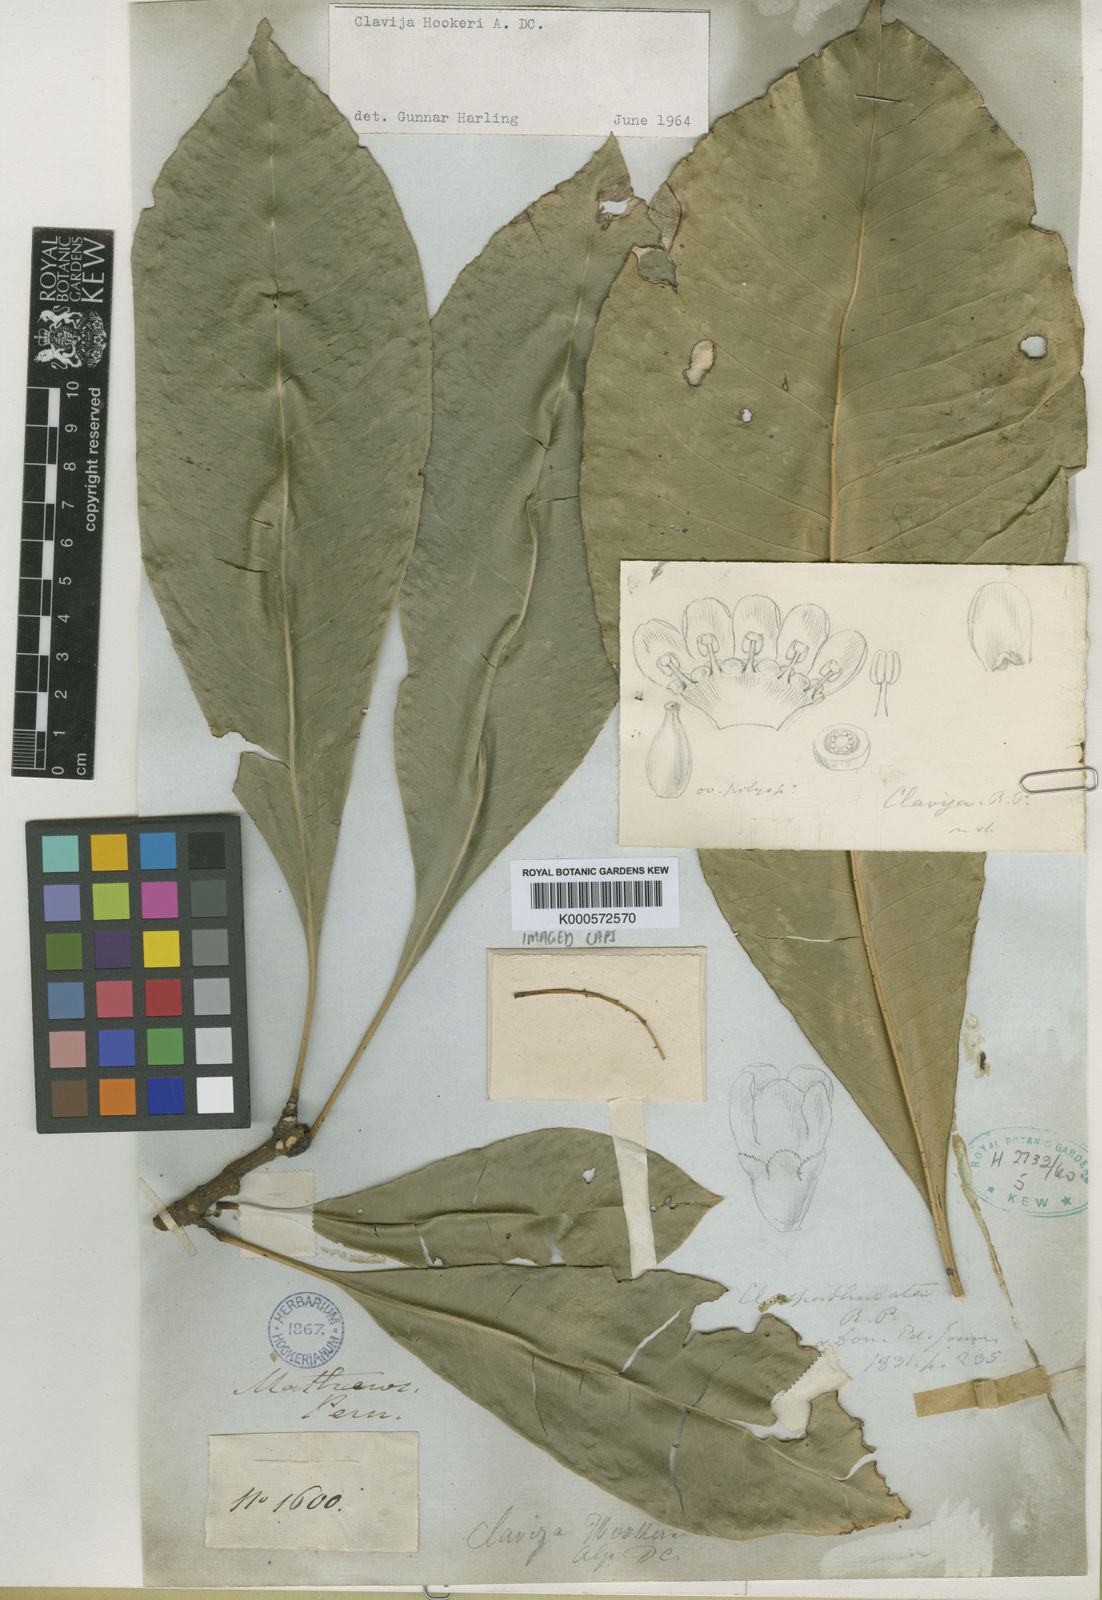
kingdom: Plantae
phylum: Tracheophyta
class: Magnoliopsida
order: Ericales
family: Primulaceae
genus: Clavija
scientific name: Clavija neglecta
